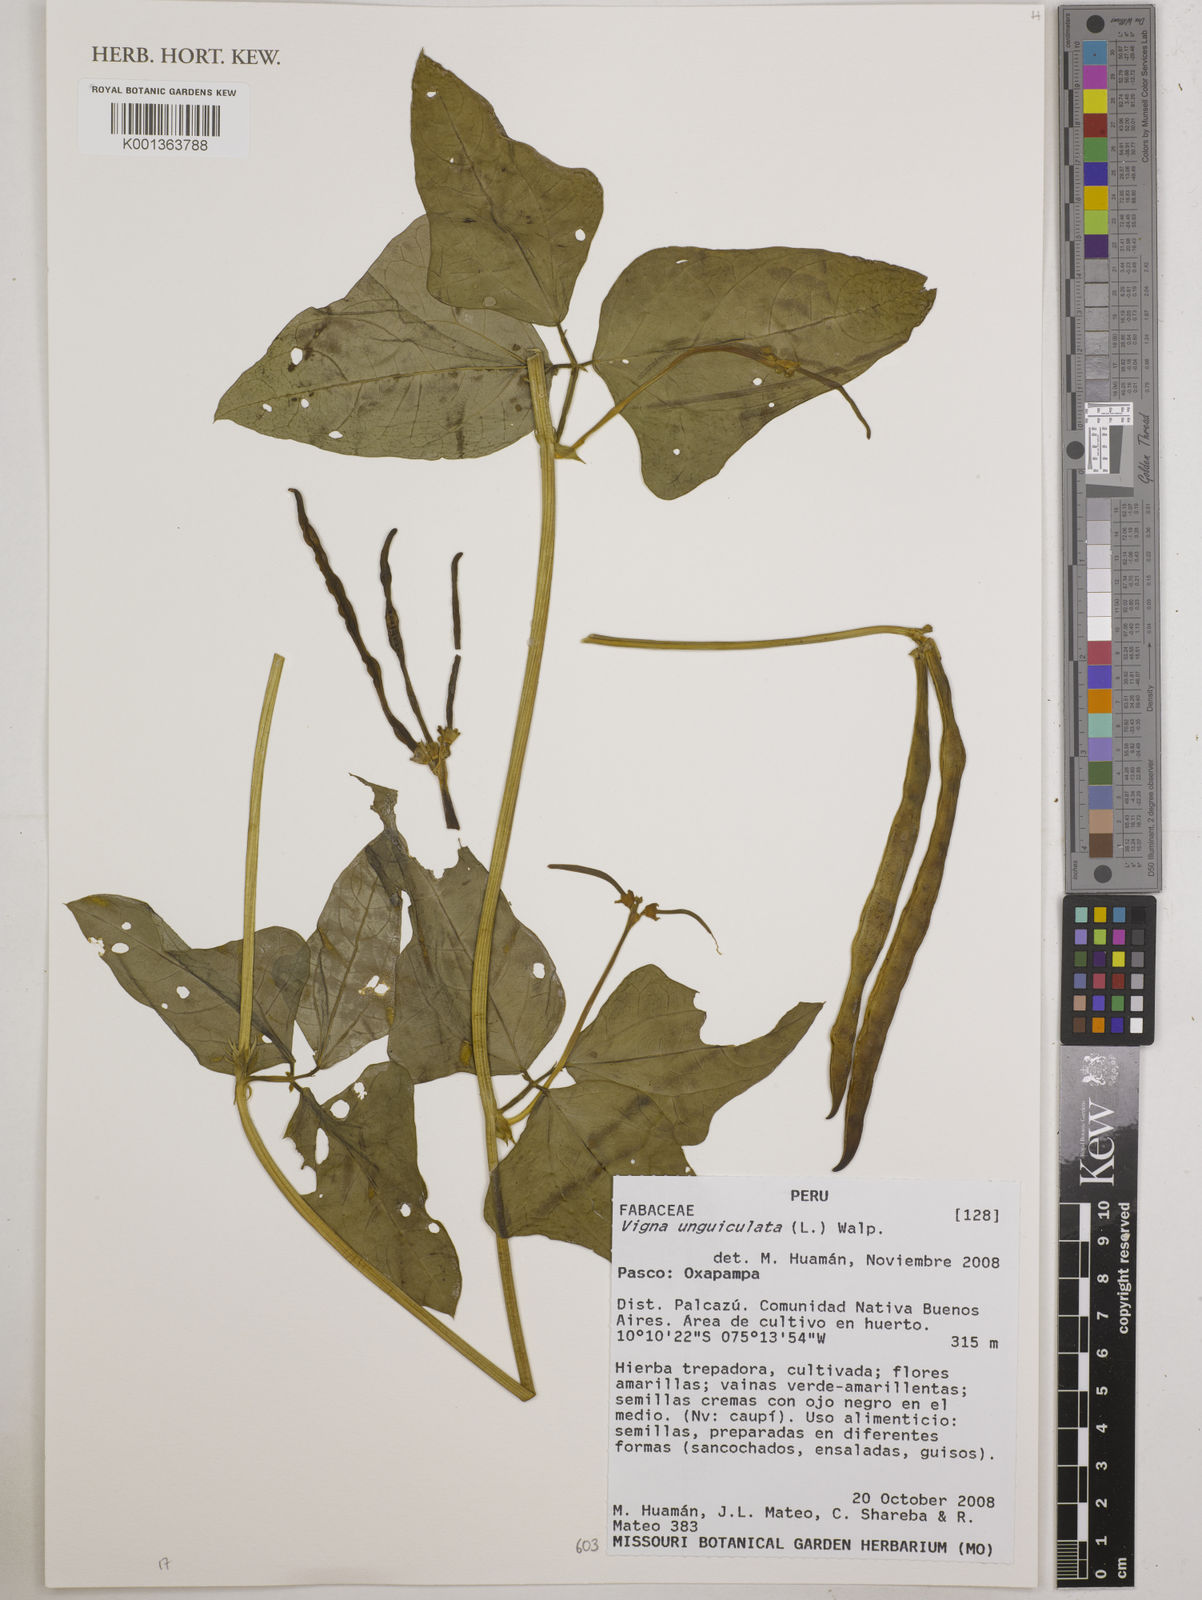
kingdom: Plantae
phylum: Tracheophyta
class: Magnoliopsida
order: Fabales
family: Fabaceae
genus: Vigna
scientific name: Vigna unguiculata
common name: Cowpea
